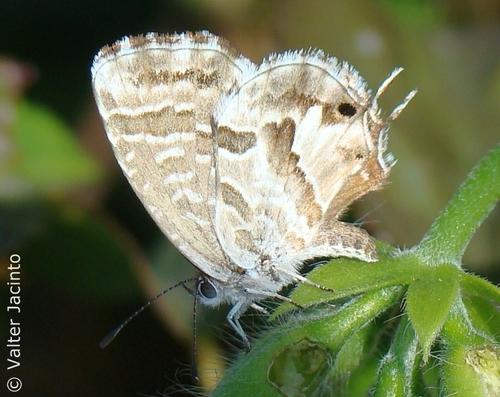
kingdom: Animalia
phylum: Arthropoda
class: Insecta
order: Lepidoptera
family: Lycaenidae
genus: Cacyreus
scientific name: Cacyreus marshalli
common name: Geranium bronze
